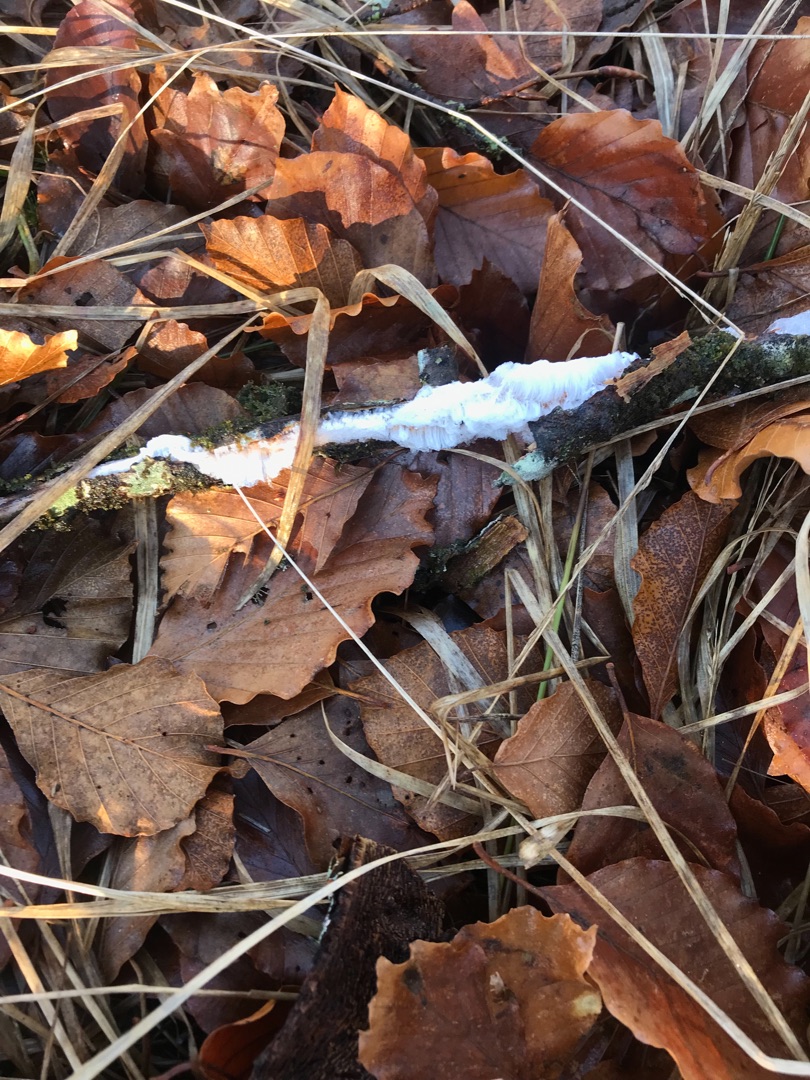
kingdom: Fungi
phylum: Basidiomycota
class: Tremellomycetes
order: Tremellales
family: Exidiaceae
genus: Exidiopsis
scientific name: Exidiopsis effusa
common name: Smuk bævrehinde
